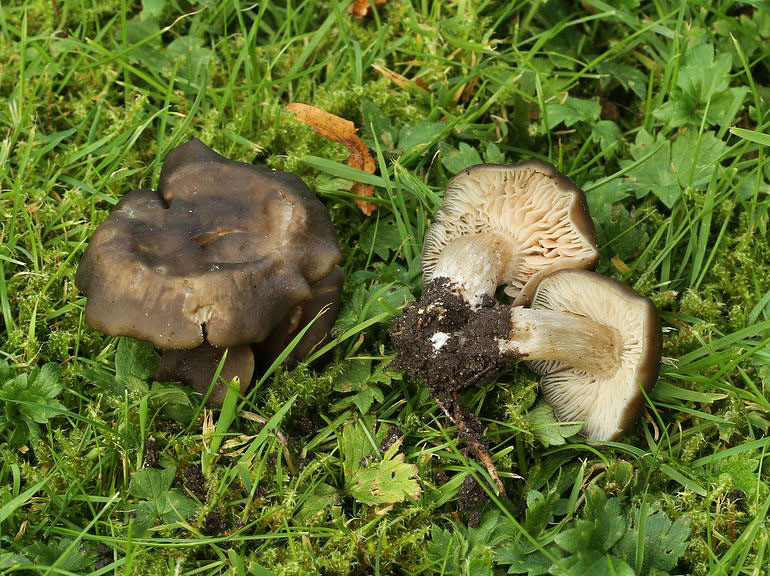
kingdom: Fungi
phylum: Basidiomycota
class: Agaricomycetes
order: Agaricales
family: Entolomataceae
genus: Entoloma
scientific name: Entoloma transvenosum
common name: tværåret rødblad
